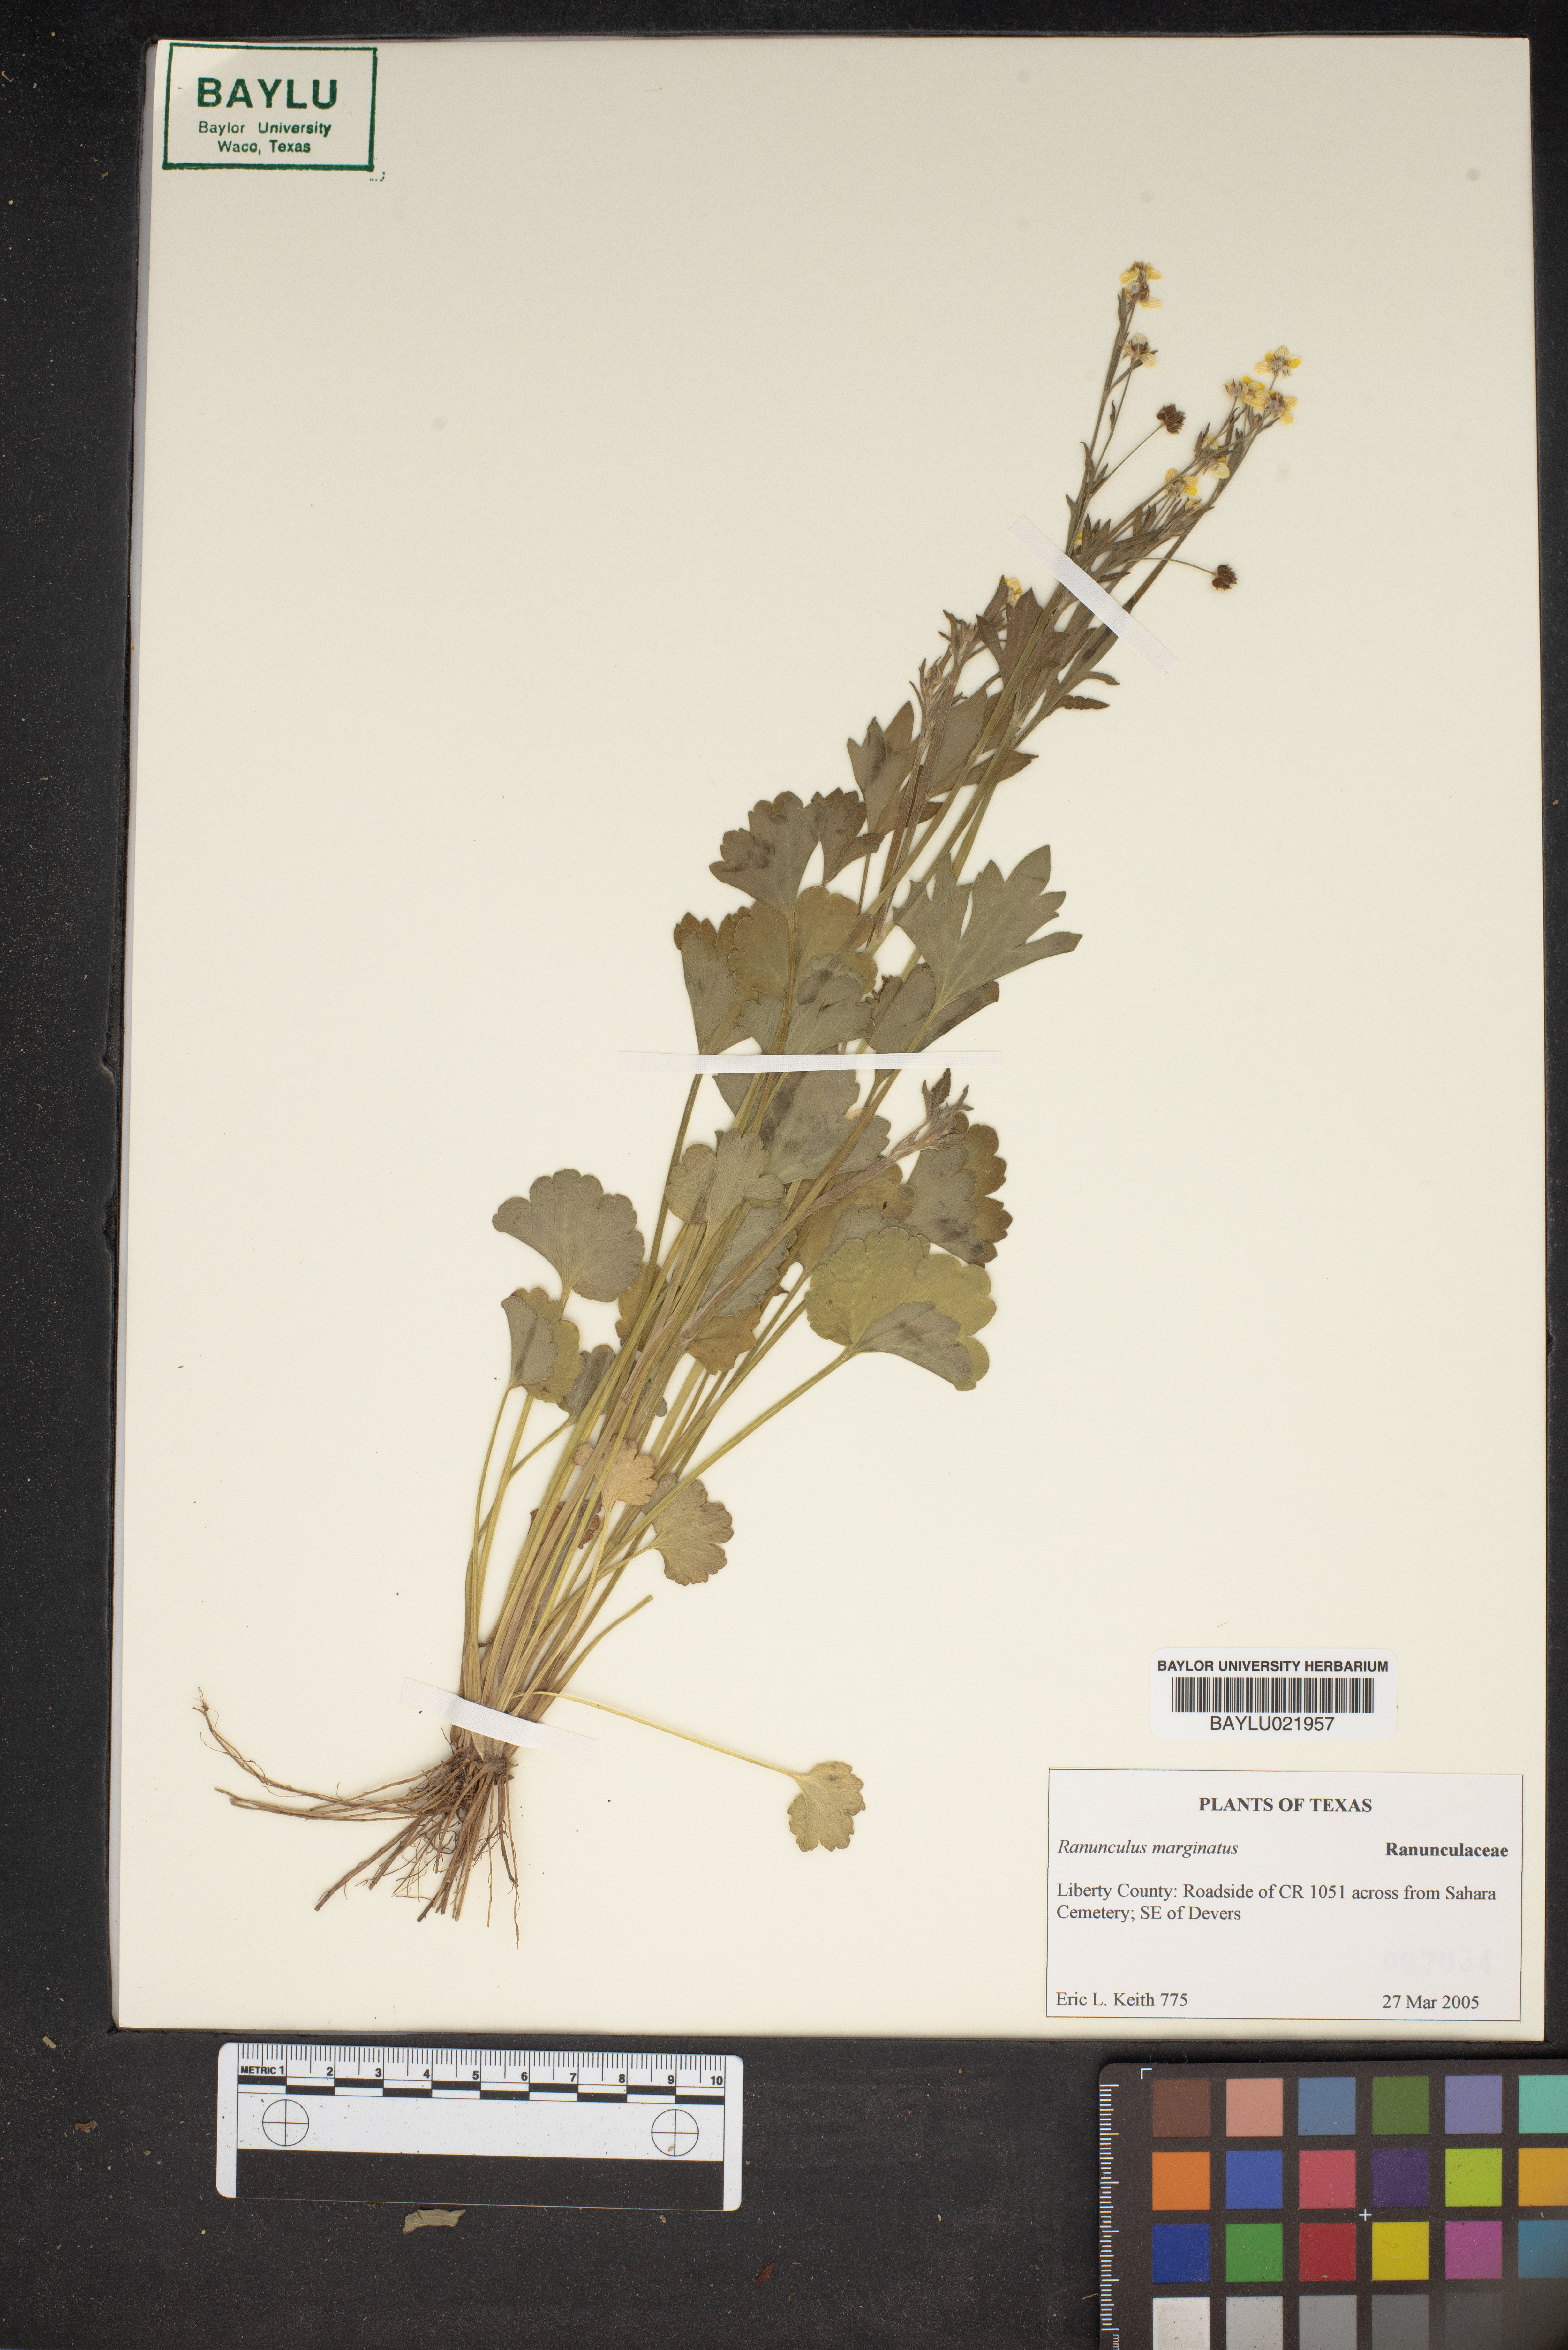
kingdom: Plantae
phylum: Tracheophyta
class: Magnoliopsida
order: Ranunculales
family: Ranunculaceae
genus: Ranunculus
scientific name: Ranunculus marginatus
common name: St. martin's buttercup
